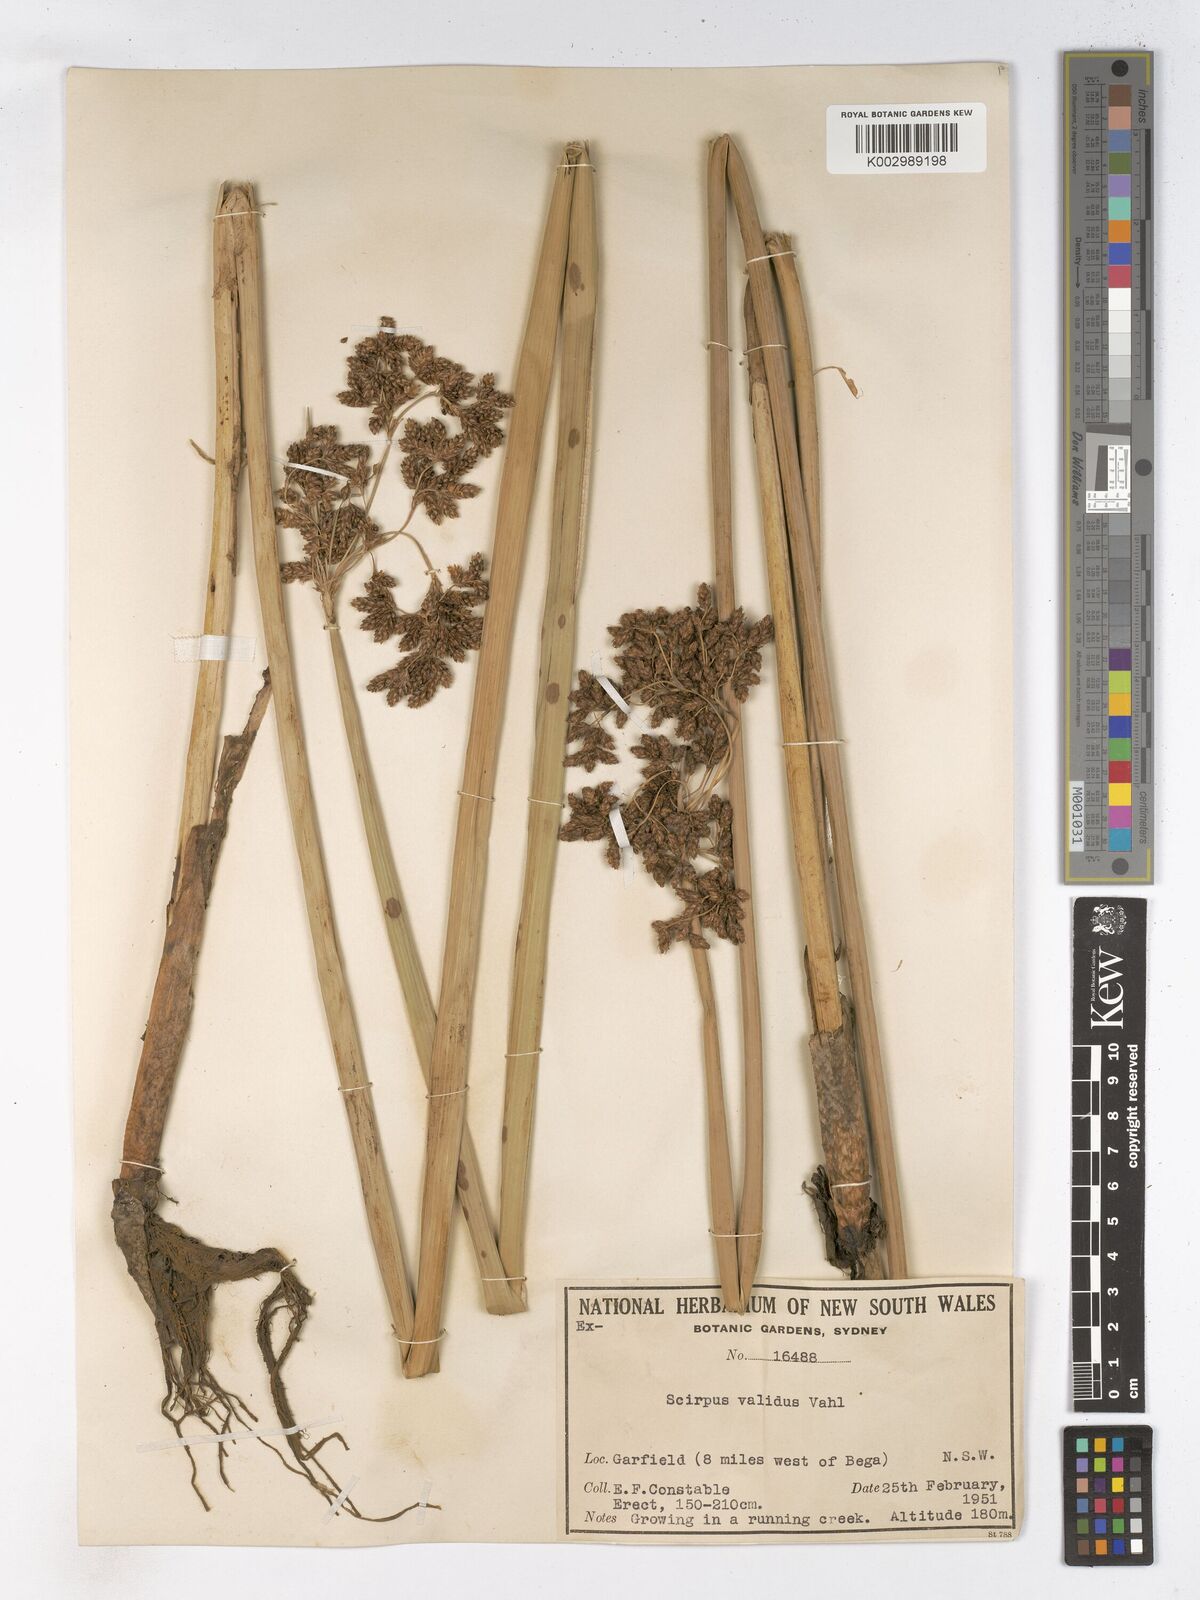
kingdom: Plantae
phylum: Tracheophyta
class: Liliopsida
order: Poales
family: Cyperaceae
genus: Schoenoplectus
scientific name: Schoenoplectus lacustris
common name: Common club-rush
